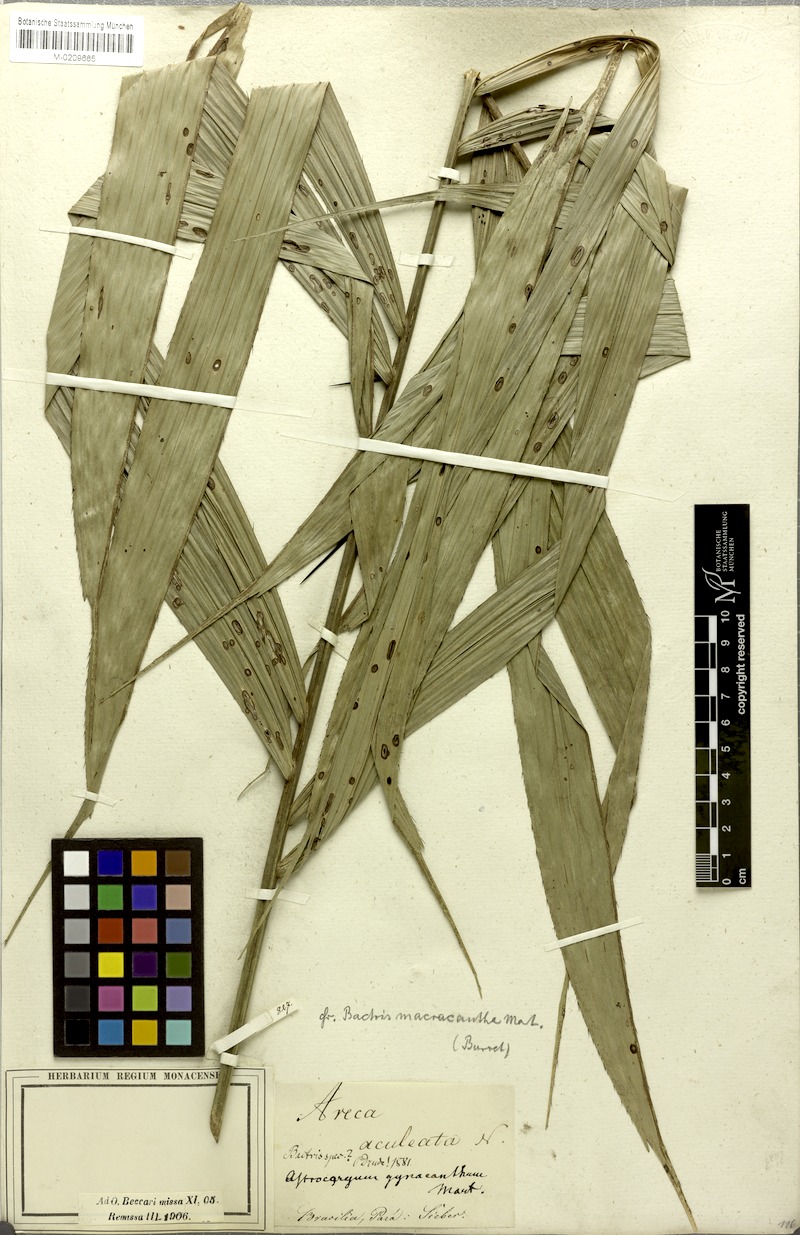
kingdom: Plantae
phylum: Tracheophyta
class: Liliopsida
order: Arecales
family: Arecaceae
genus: Bactris
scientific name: Bactris macroacantha
